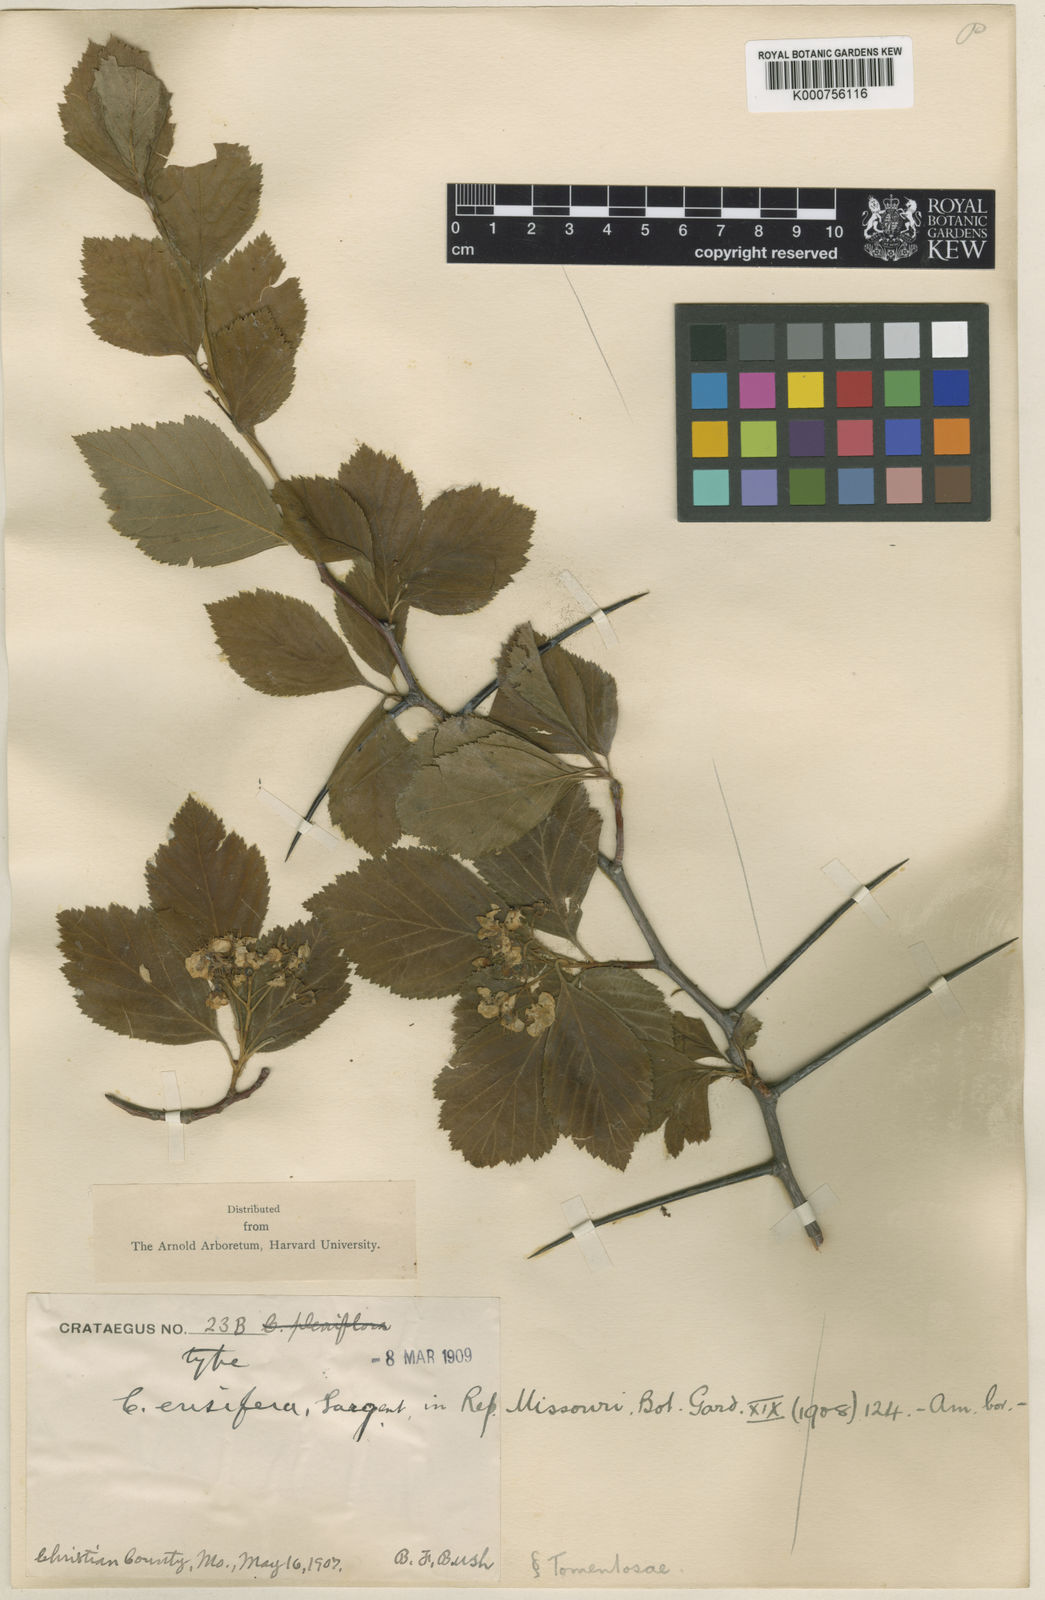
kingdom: Plantae
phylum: Tracheophyta
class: Magnoliopsida
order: Rosales
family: Rosaceae
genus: Crataegus
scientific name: Crataegus ensifera
